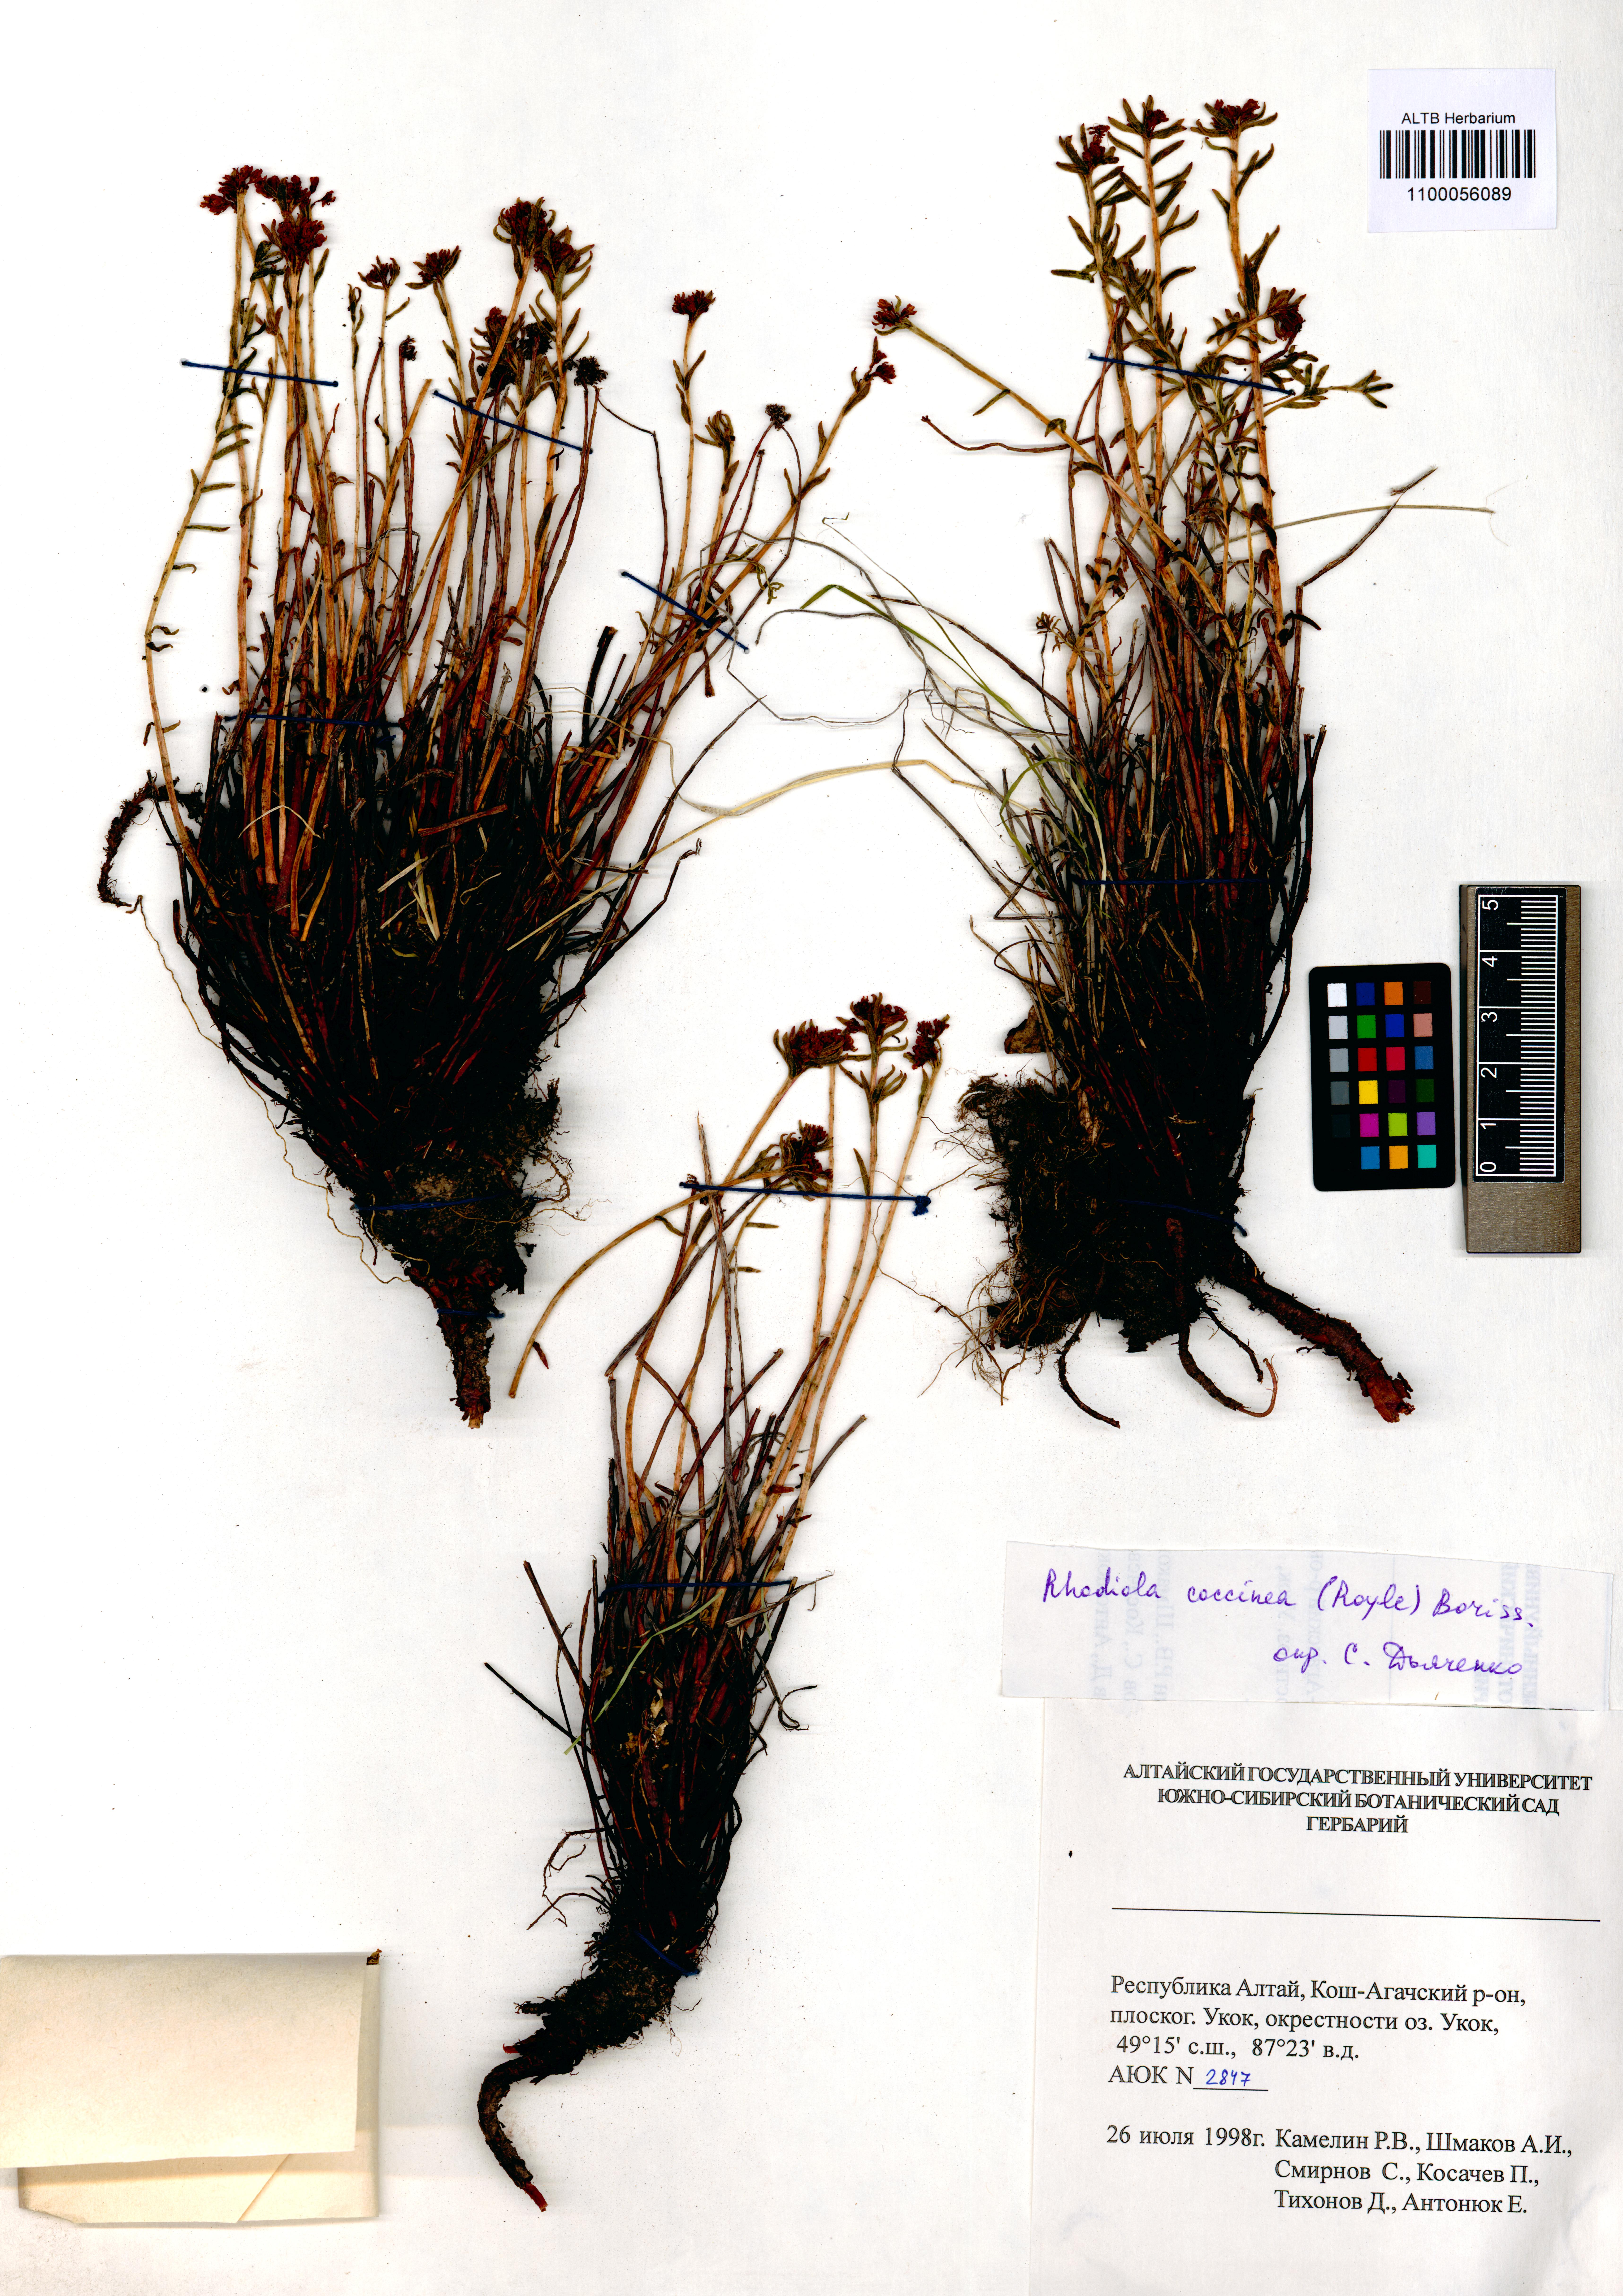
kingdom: Plantae
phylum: Tracheophyta
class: Magnoliopsida
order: Saxifragales
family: Crassulaceae
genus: Rhodiola
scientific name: Rhodiola coccinea
